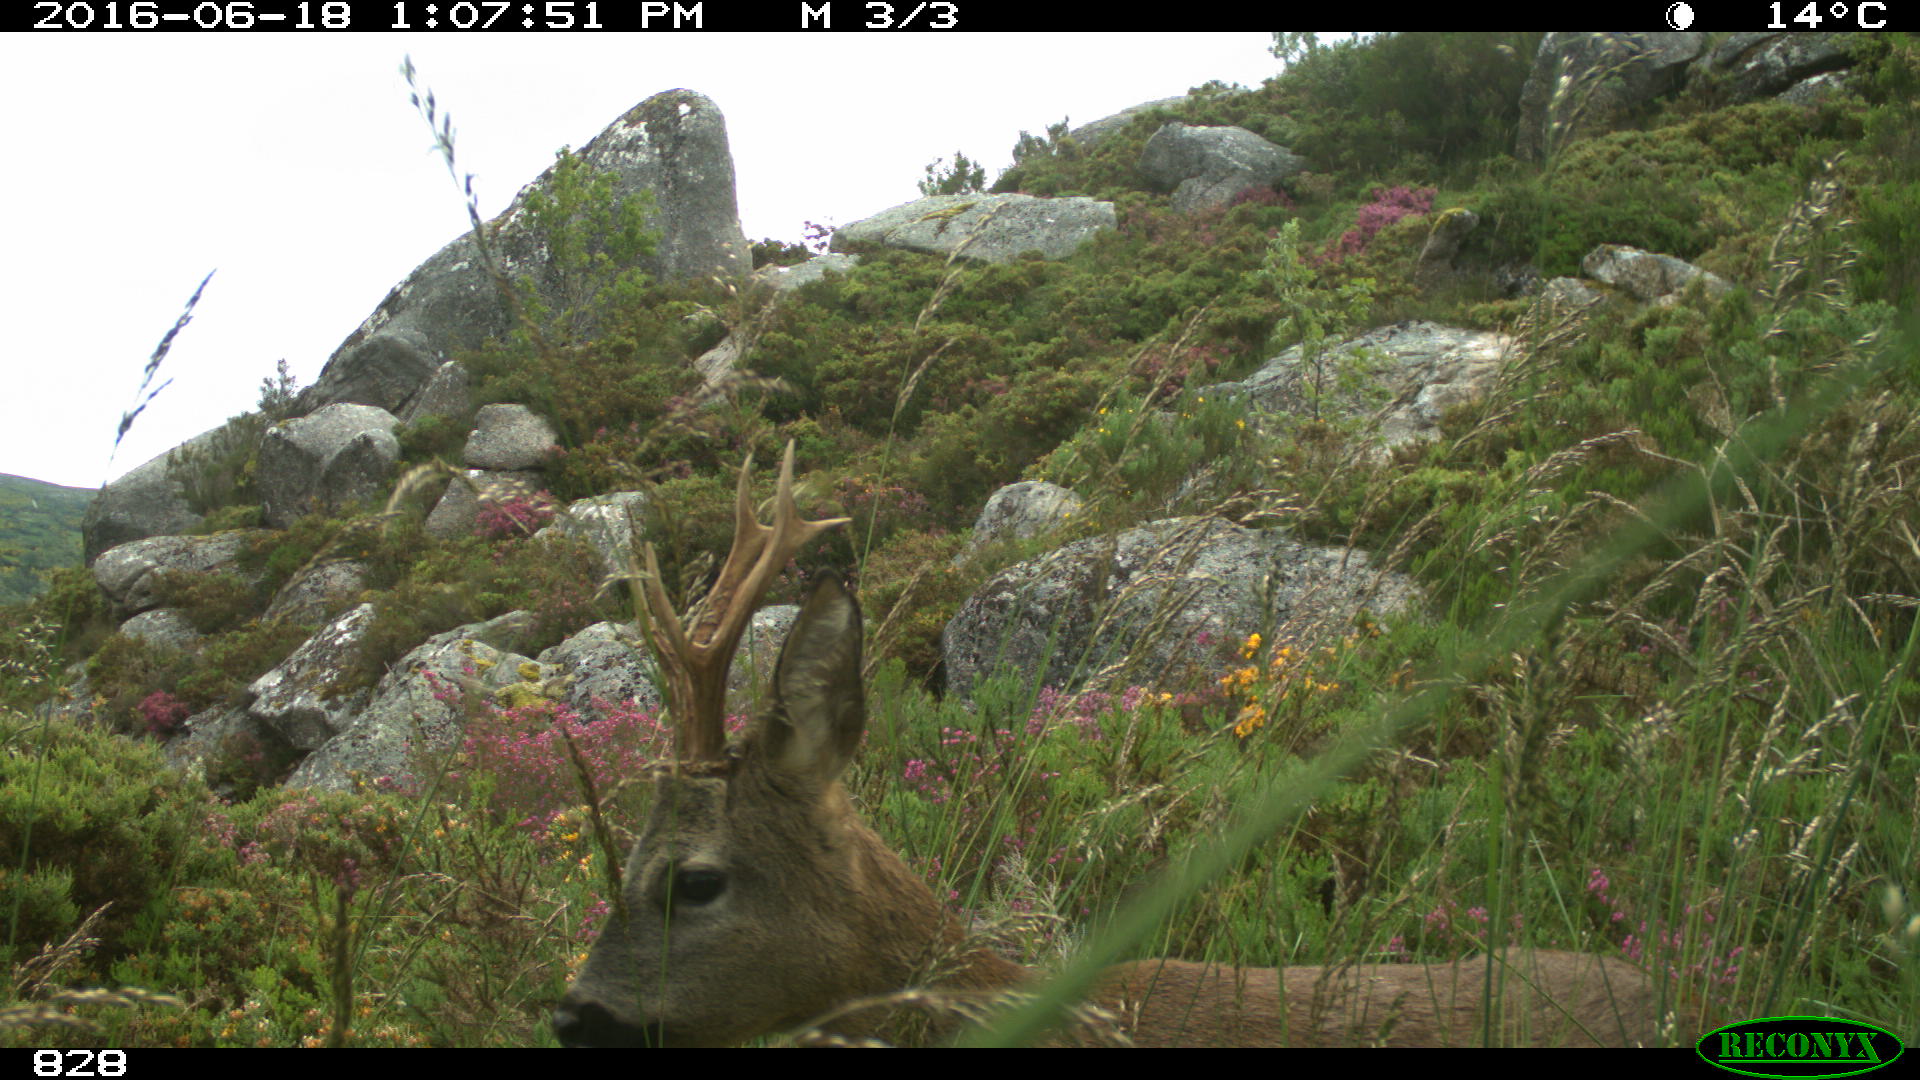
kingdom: Animalia
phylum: Chordata
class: Mammalia
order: Artiodactyla
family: Cervidae
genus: Capreolus
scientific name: Capreolus capreolus
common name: Western roe deer
